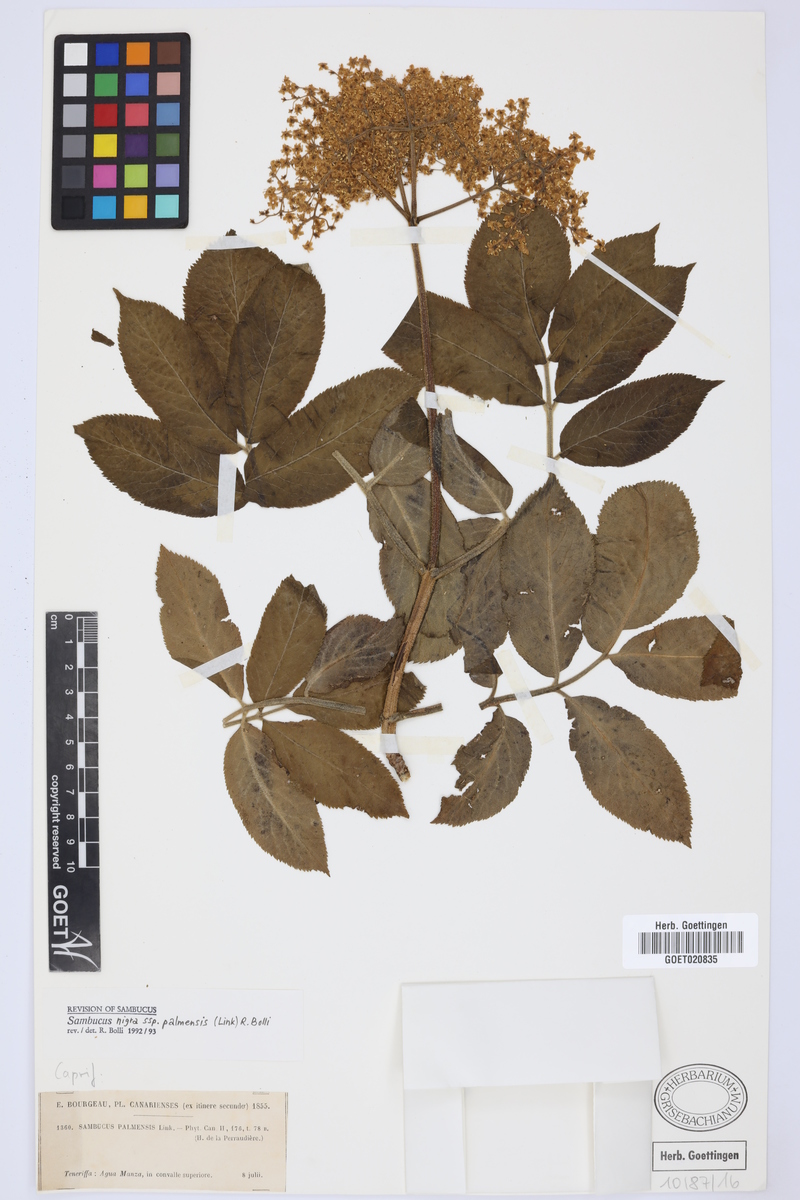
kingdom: Plantae
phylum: Tracheophyta
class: Magnoliopsida
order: Dipsacales
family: Viburnaceae
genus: Sambucus
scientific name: Sambucus palmensis
